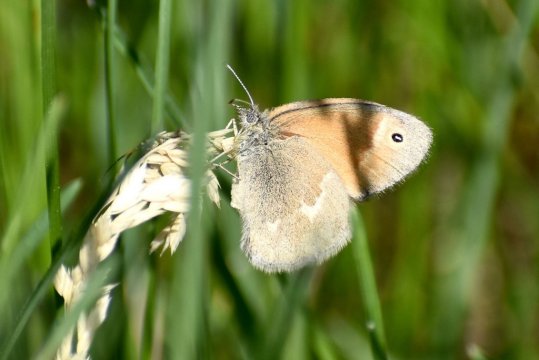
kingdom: Animalia
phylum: Arthropoda
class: Insecta
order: Lepidoptera
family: Nymphalidae
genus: Coenonympha
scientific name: Coenonympha tullia
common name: Large Heath
